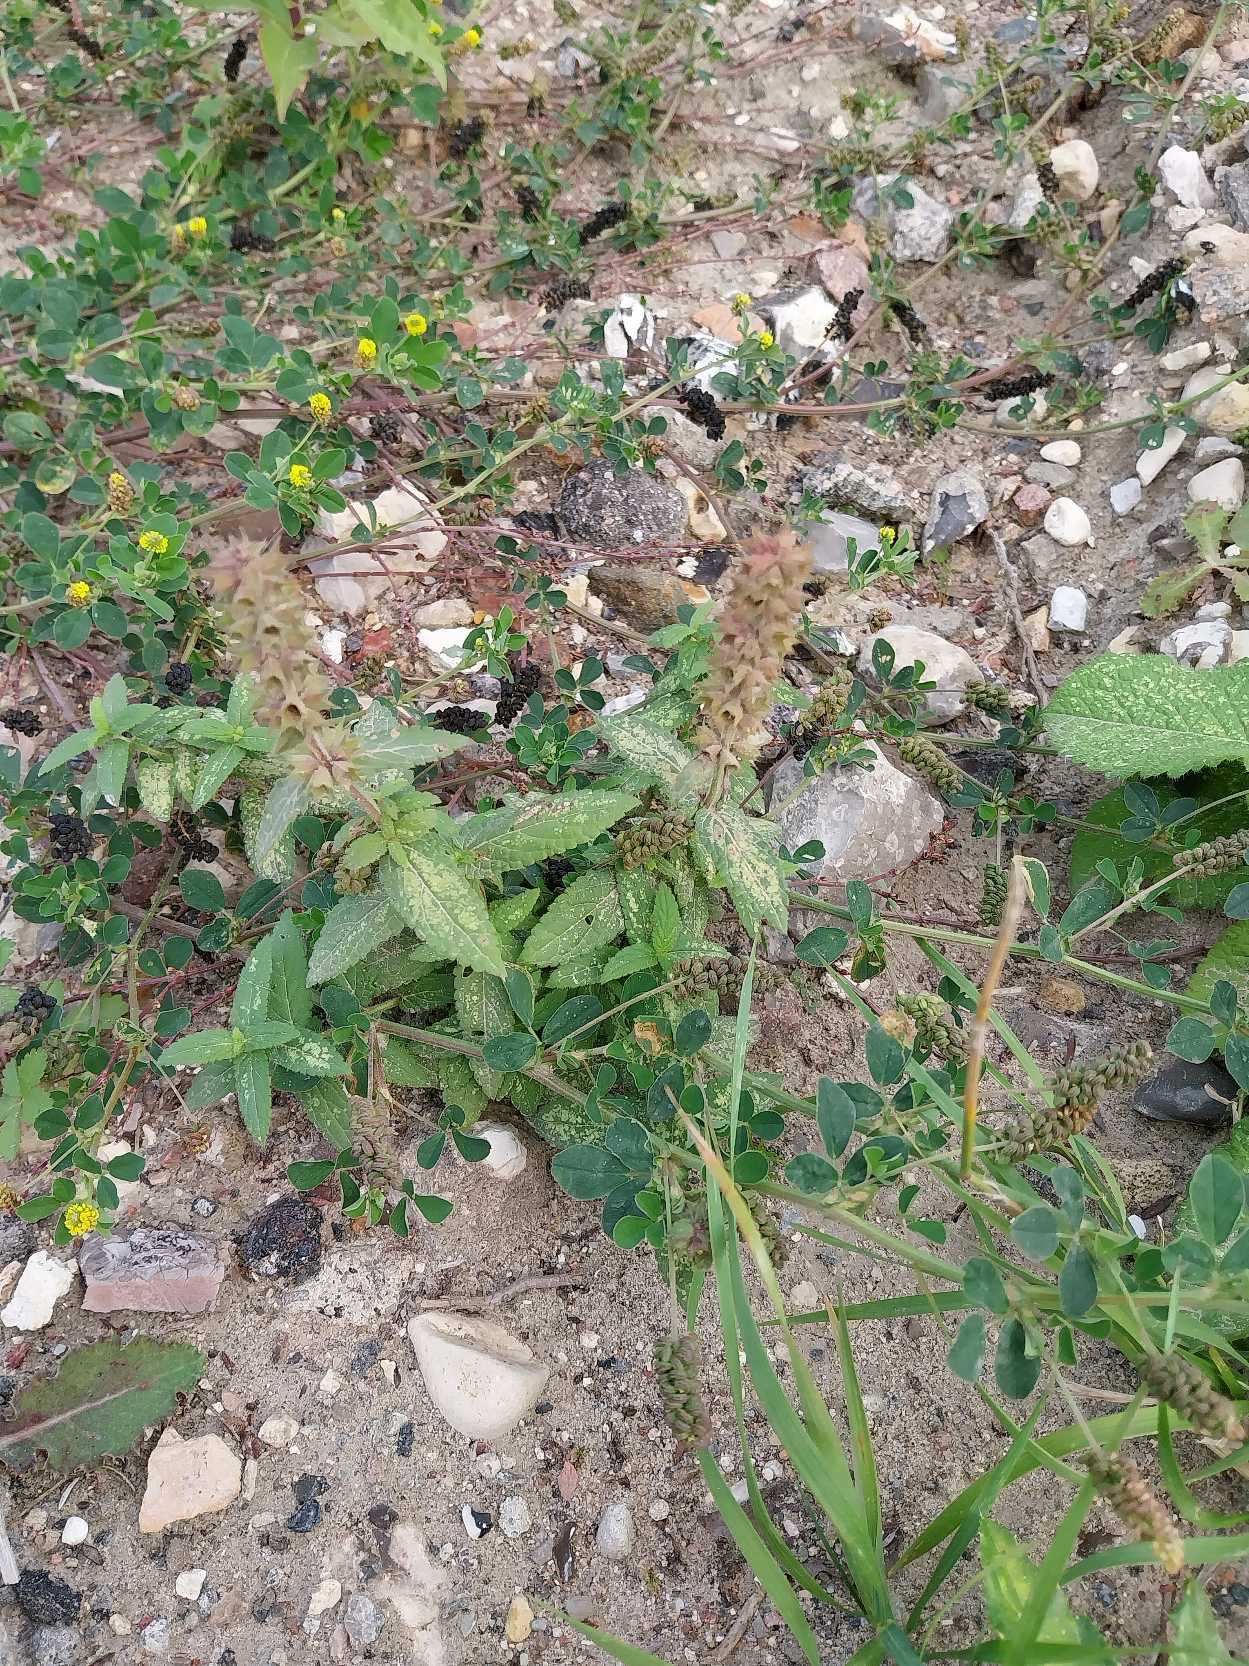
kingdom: Plantae
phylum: Tracheophyta
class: Magnoliopsida
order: Lamiales
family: Lamiaceae
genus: Stachys
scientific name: Stachys palustris
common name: Kær-galtetand
